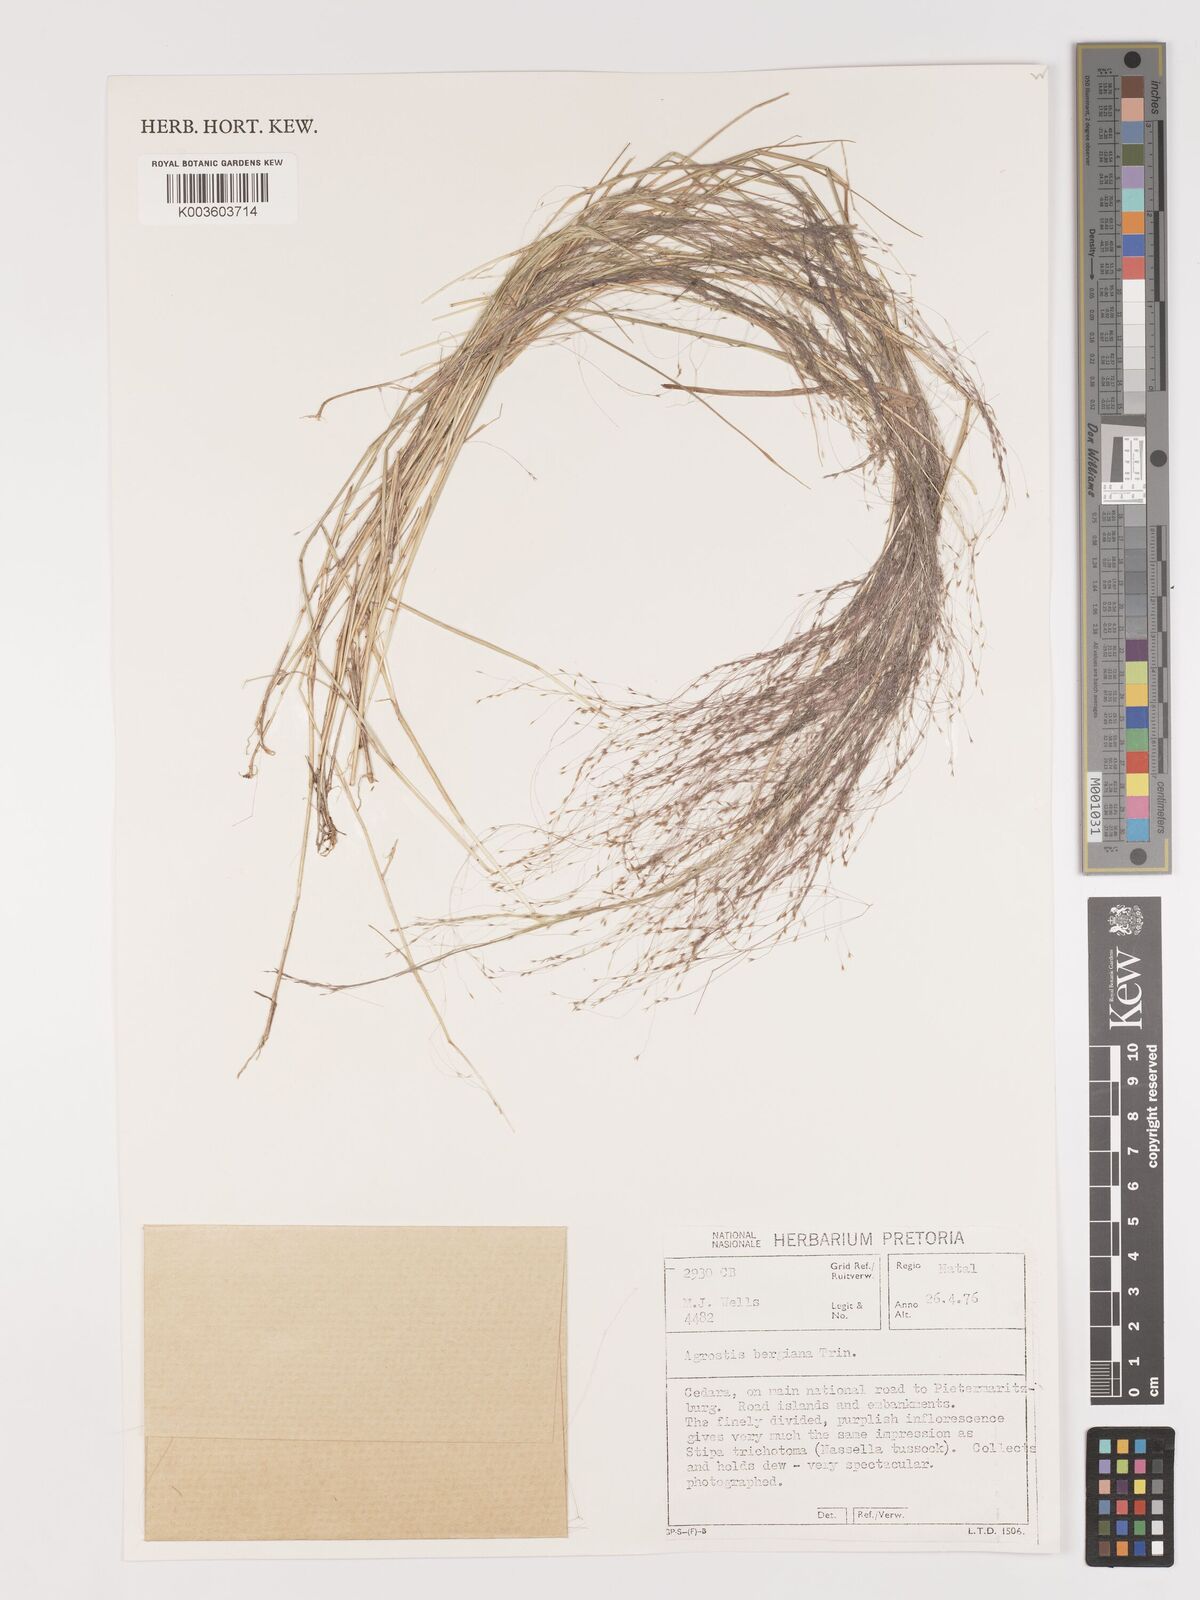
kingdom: Plantae
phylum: Tracheophyta
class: Liliopsida
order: Poales
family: Poaceae
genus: Agrostis
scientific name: Agrostis bergiana
